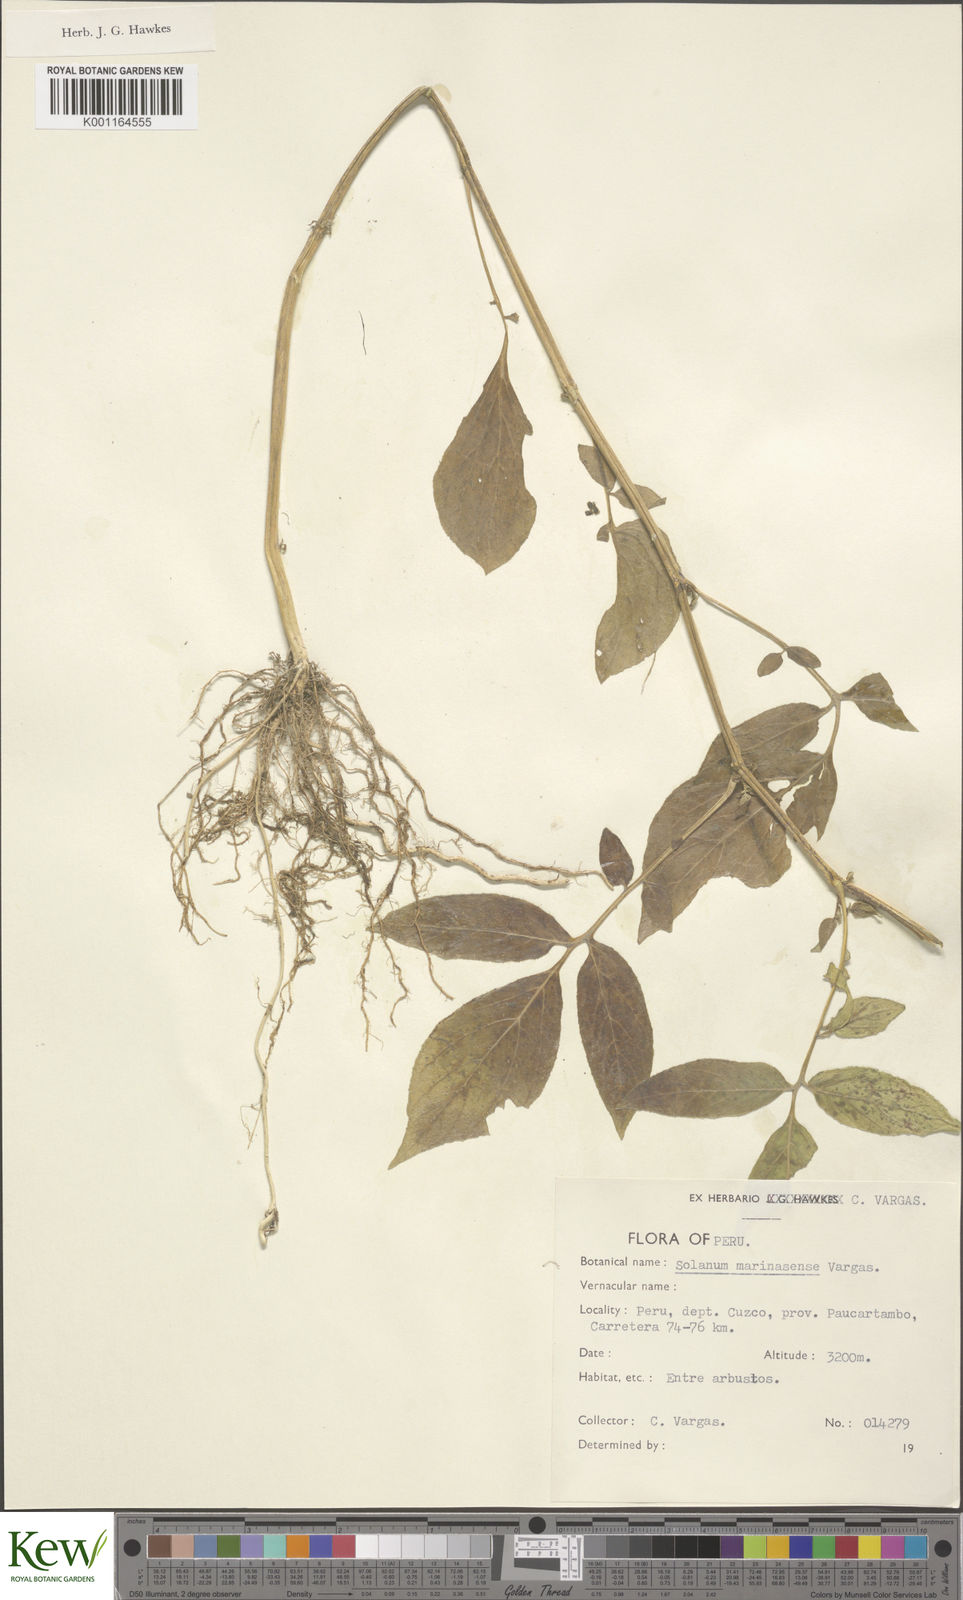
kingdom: Plantae
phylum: Tracheophyta
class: Magnoliopsida
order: Solanales
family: Solanaceae
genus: Solanum
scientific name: Solanum candolleanum
